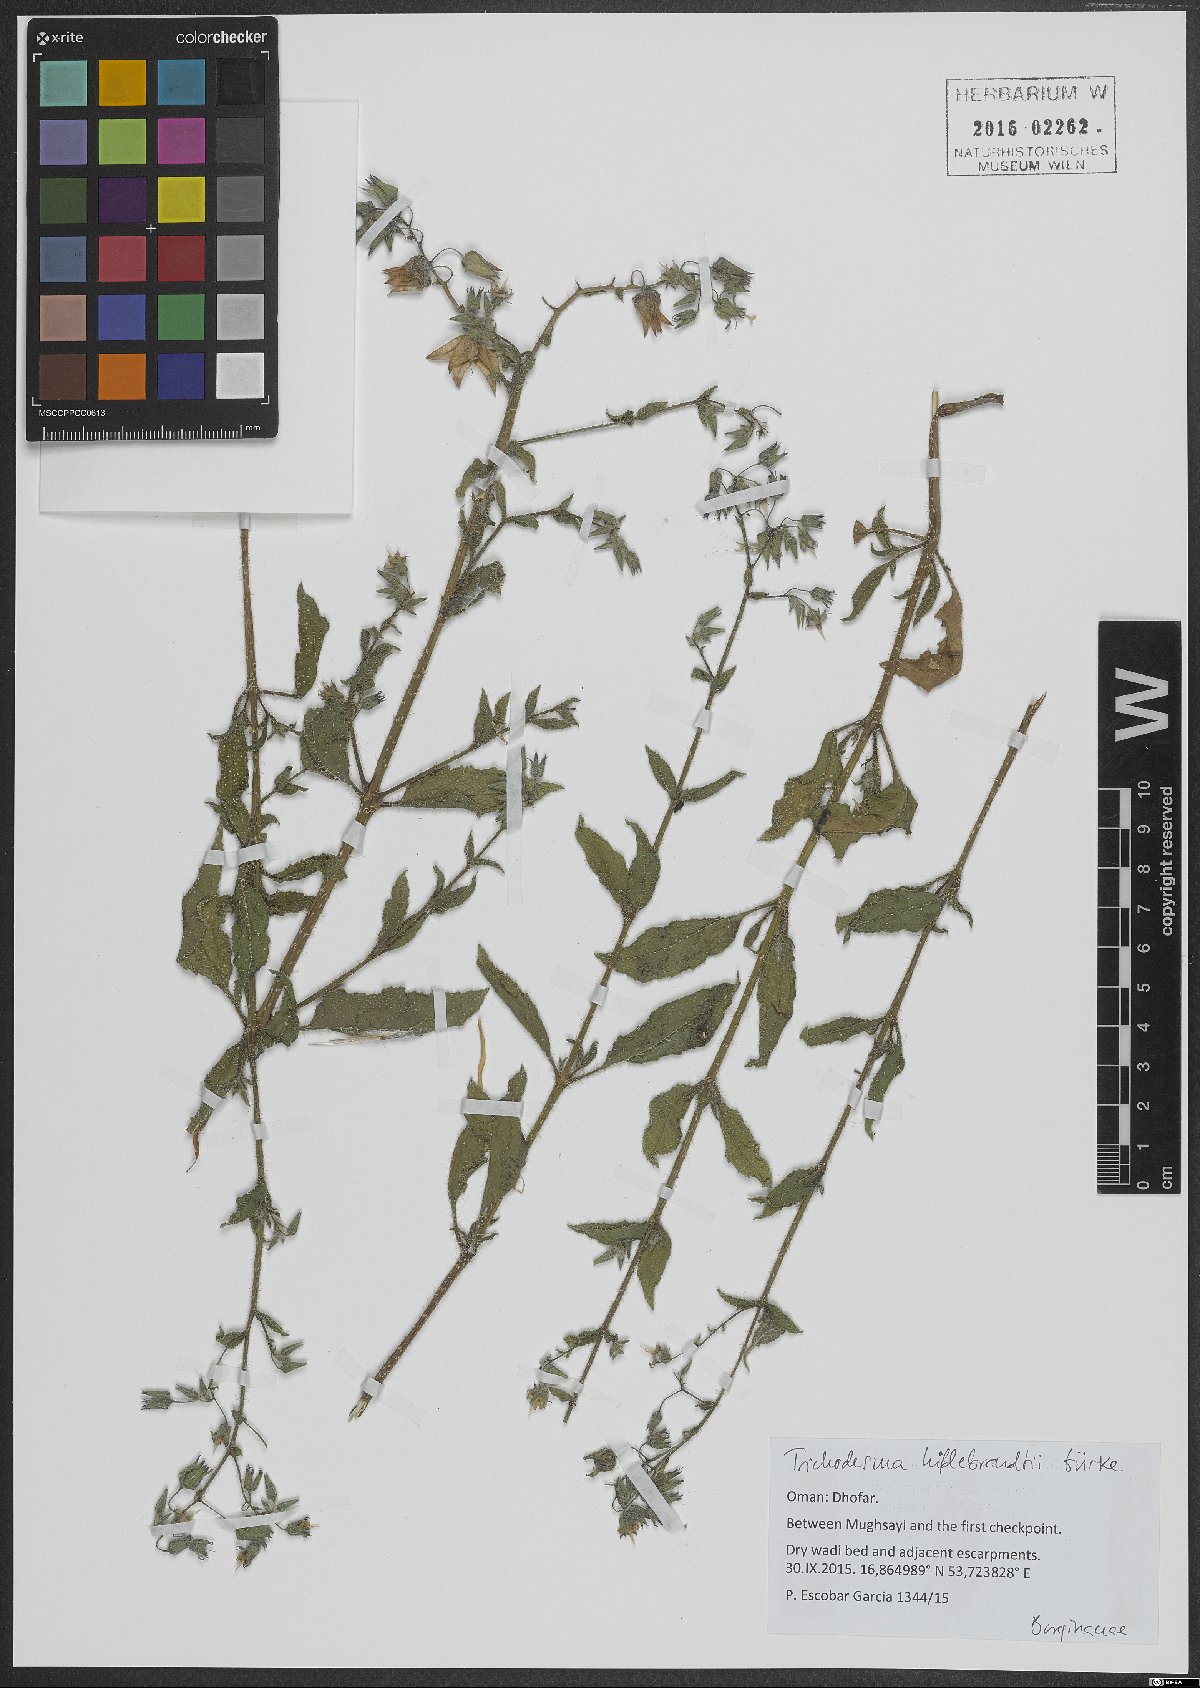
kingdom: Plantae
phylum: Tracheophyta
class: Magnoliopsida
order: Boraginales
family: Boraginaceae
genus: Trichodesma
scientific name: Trichodesma hildebrandtii
